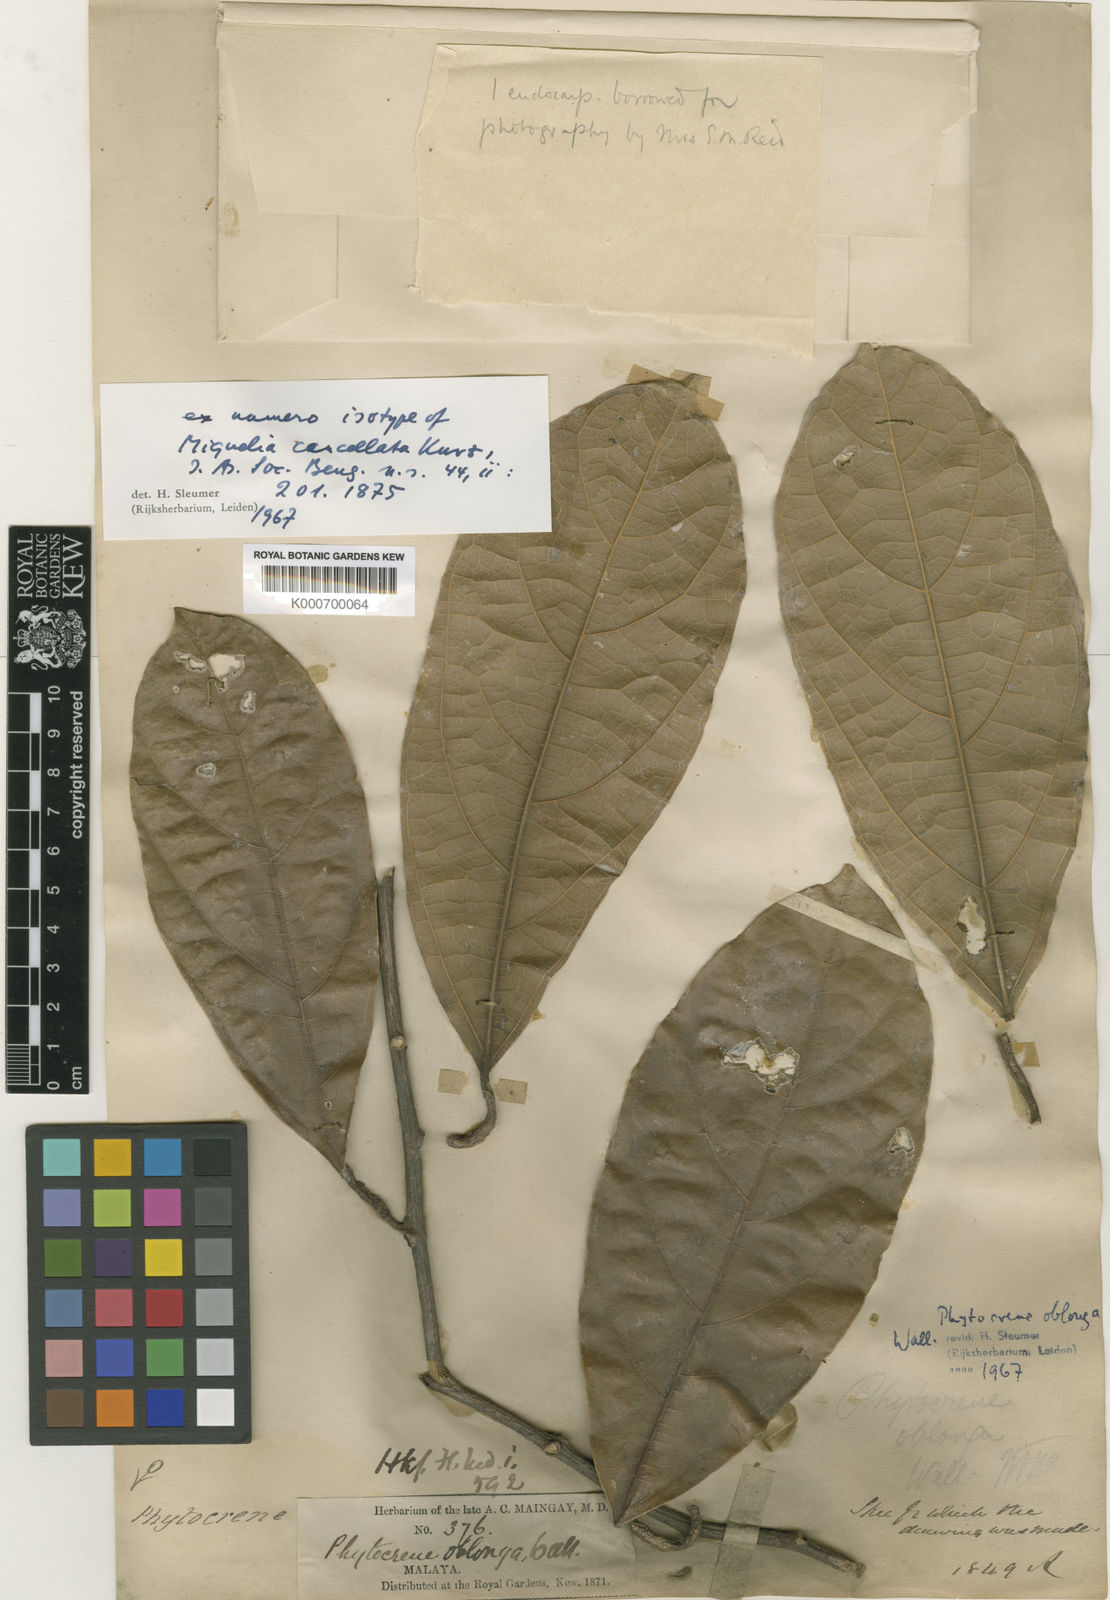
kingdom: Plantae
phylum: Tracheophyta
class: Magnoliopsida
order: Icacinales
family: Icacinaceae
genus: Phytocrene
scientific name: Phytocrene oblonga
